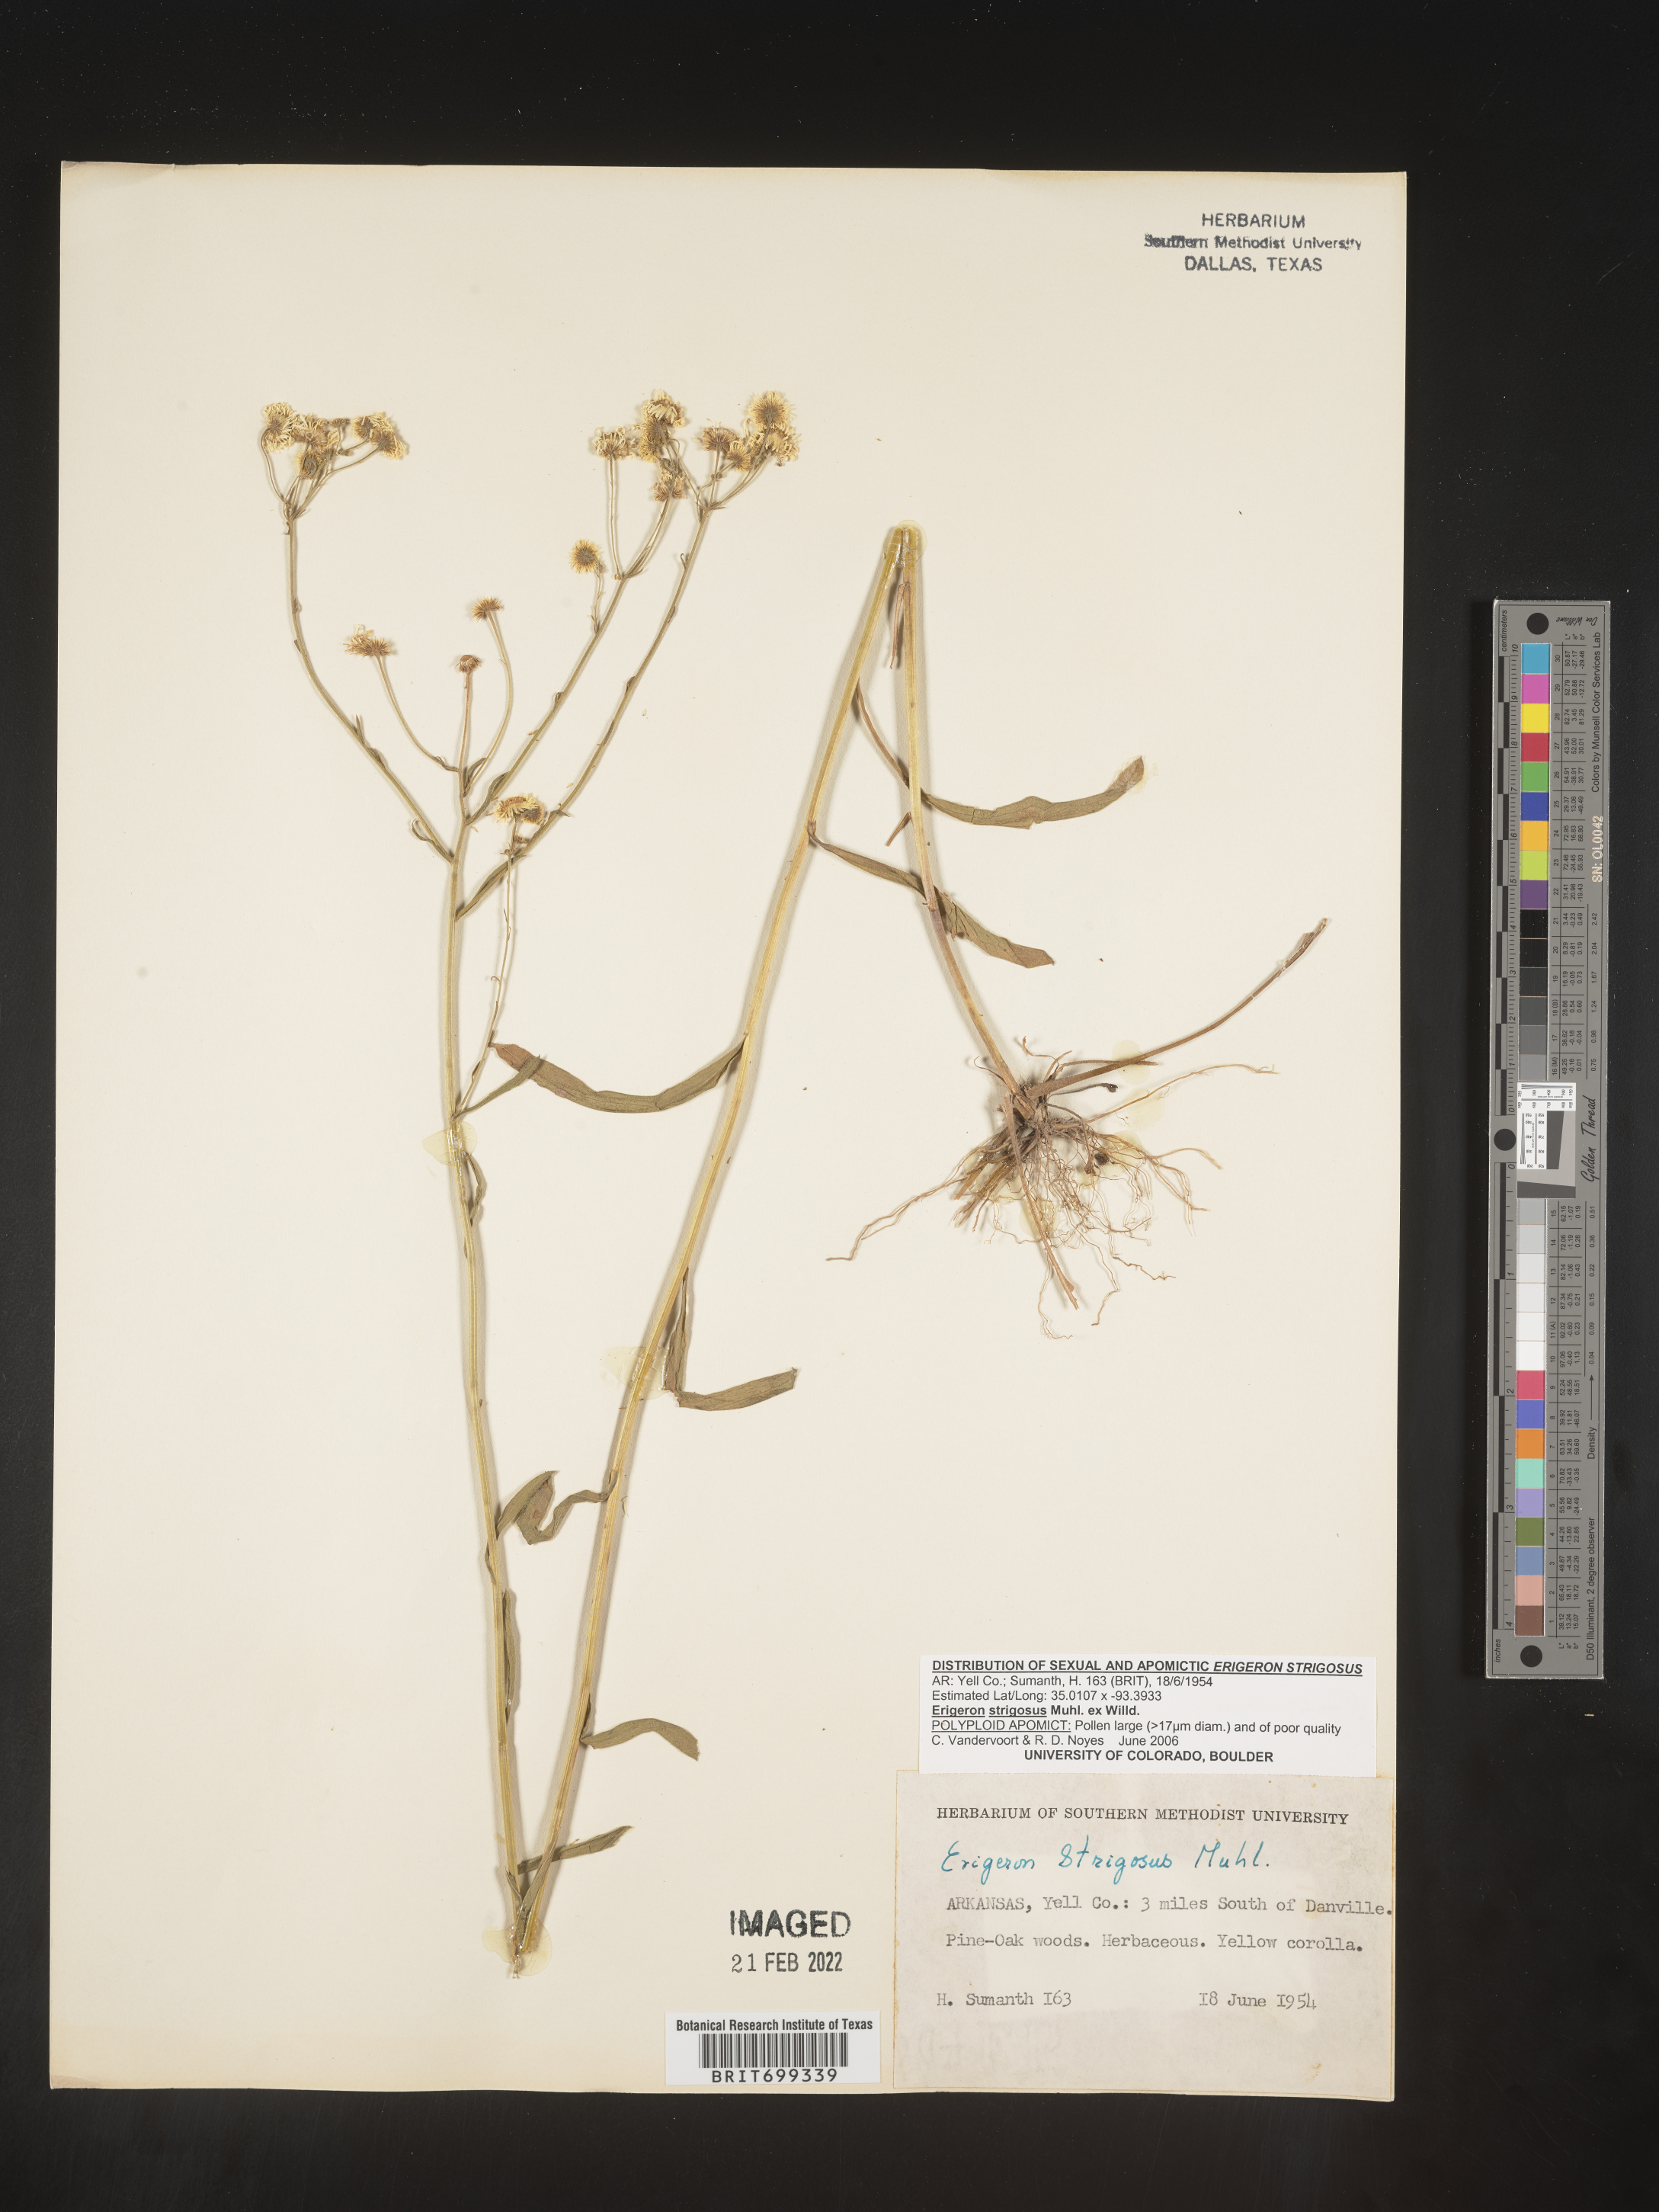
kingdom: Plantae
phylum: Tracheophyta
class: Magnoliopsida
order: Asterales
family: Asteraceae
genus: Erigeron
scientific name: Erigeron strigosus
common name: Common eastern fleabane
